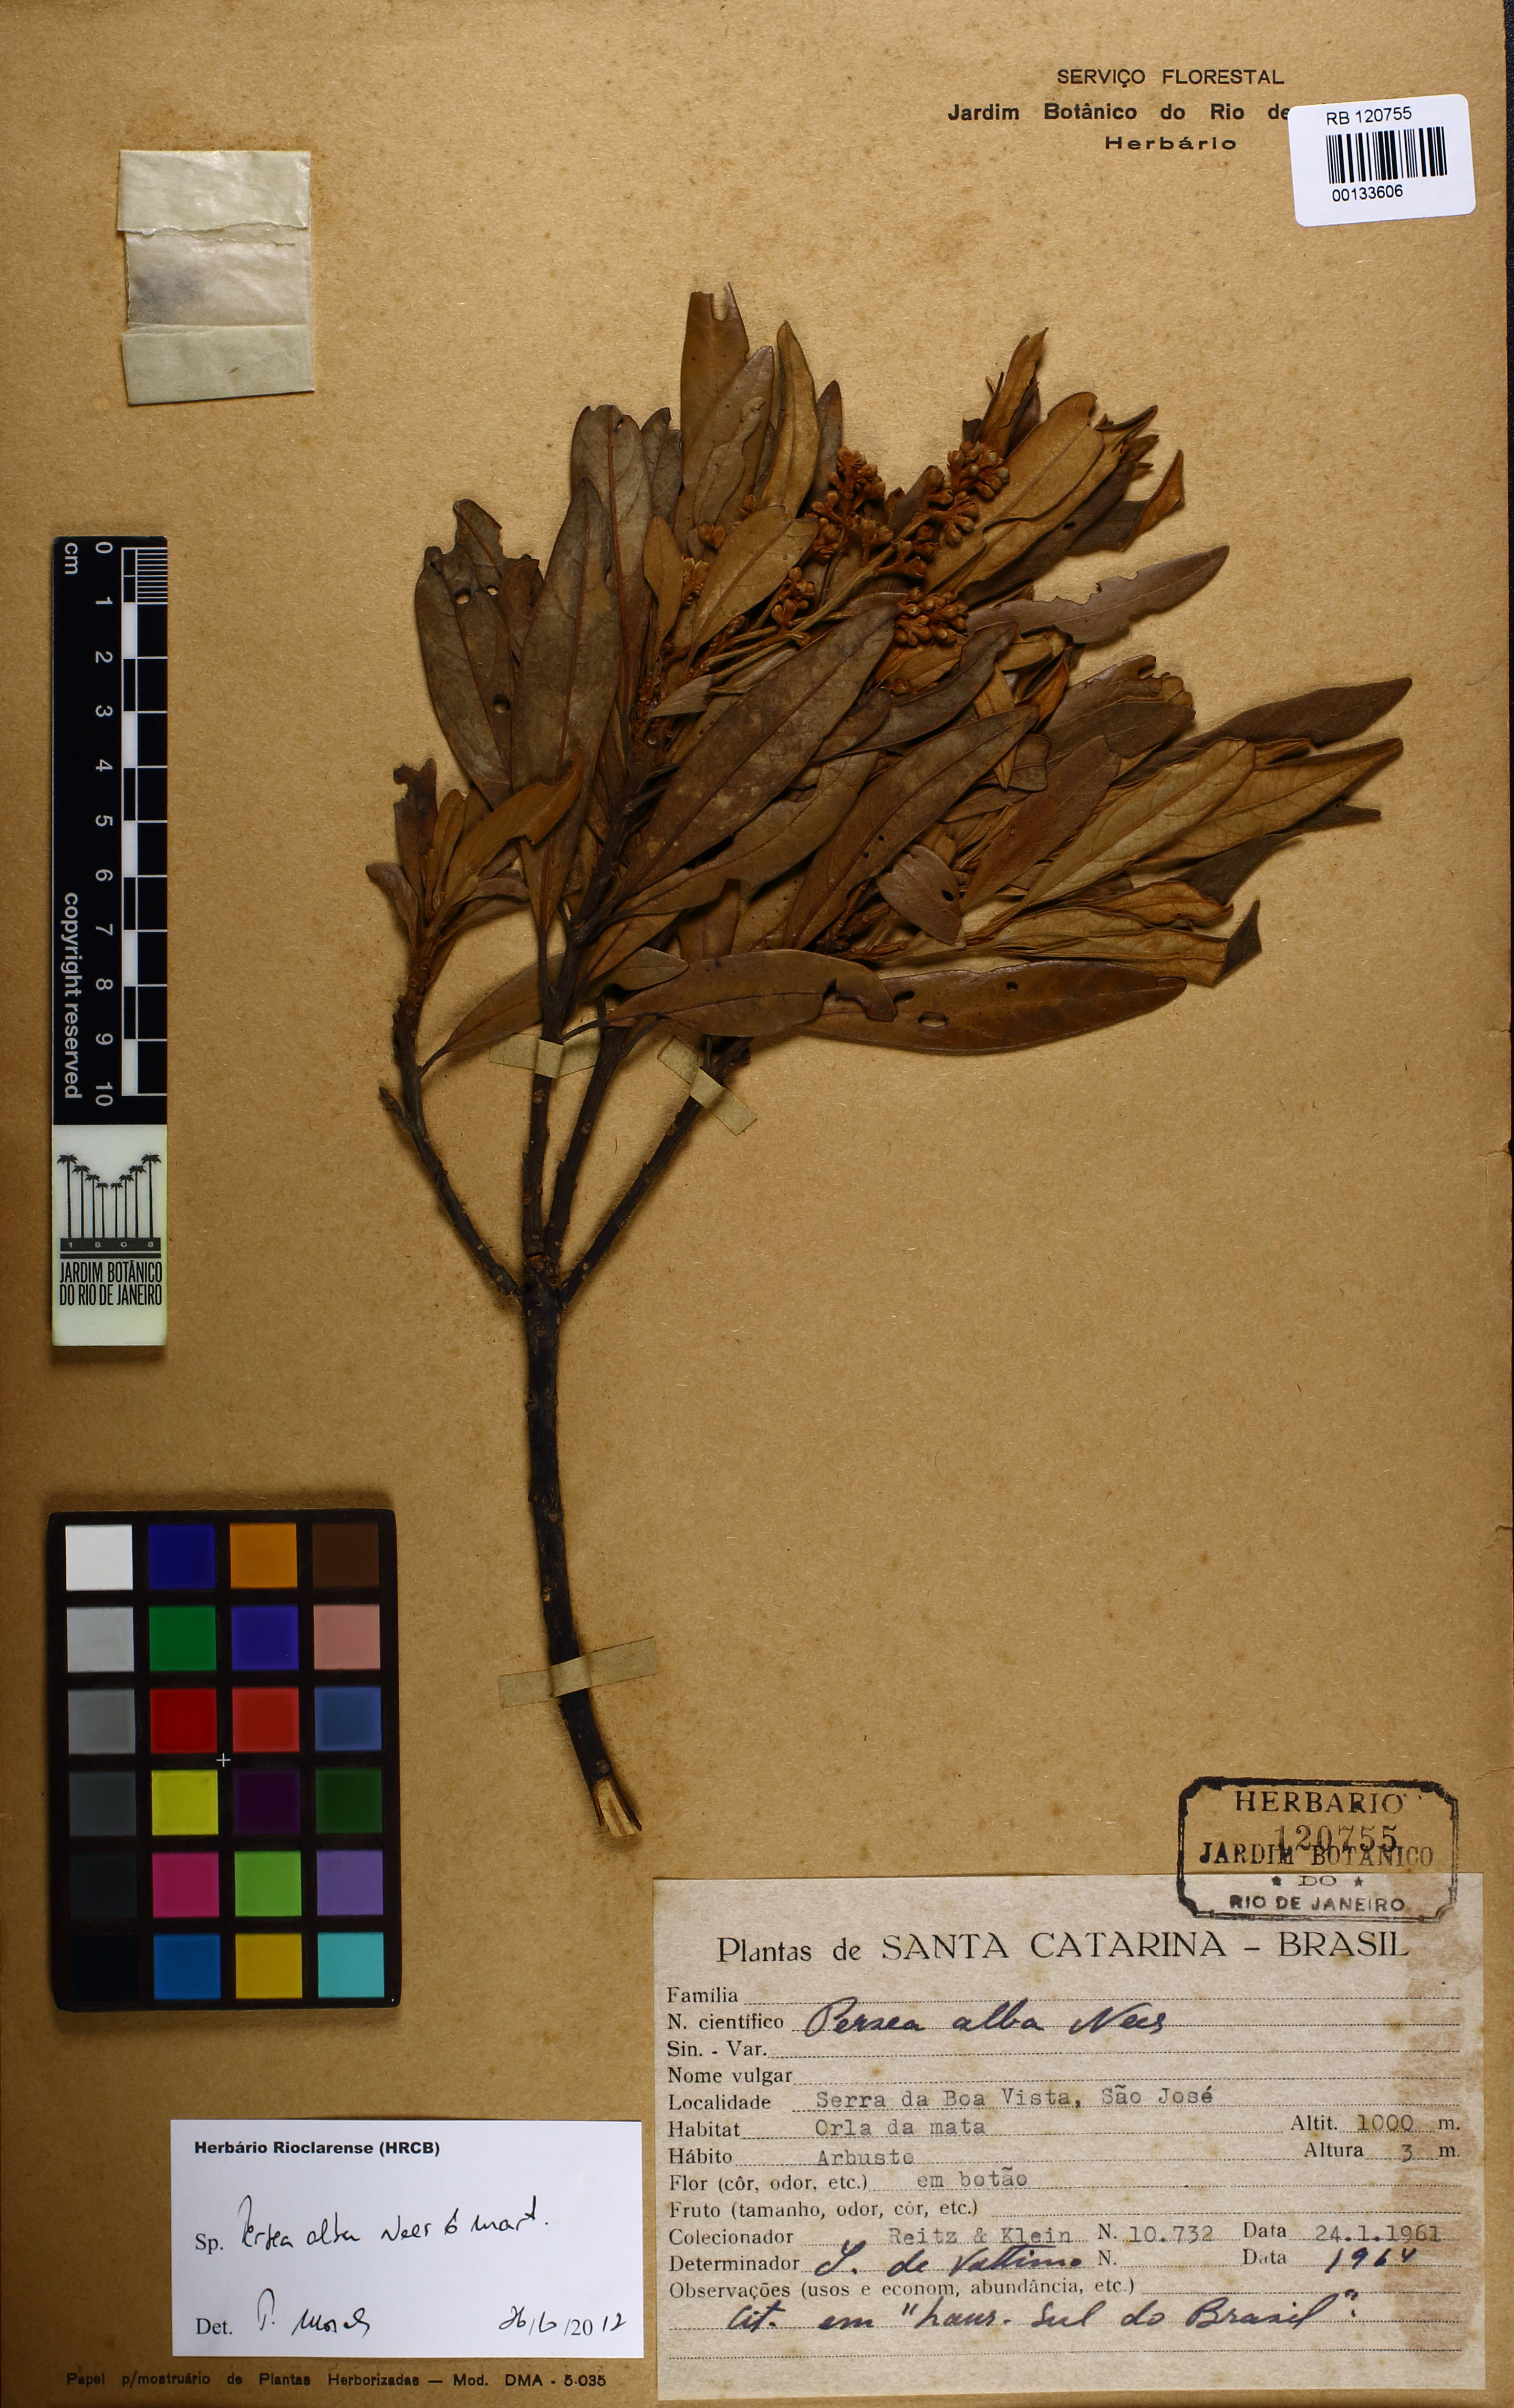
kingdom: Plantae
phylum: Tracheophyta
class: Magnoliopsida
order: Laurales
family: Lauraceae
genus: Persea
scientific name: Persea alba
